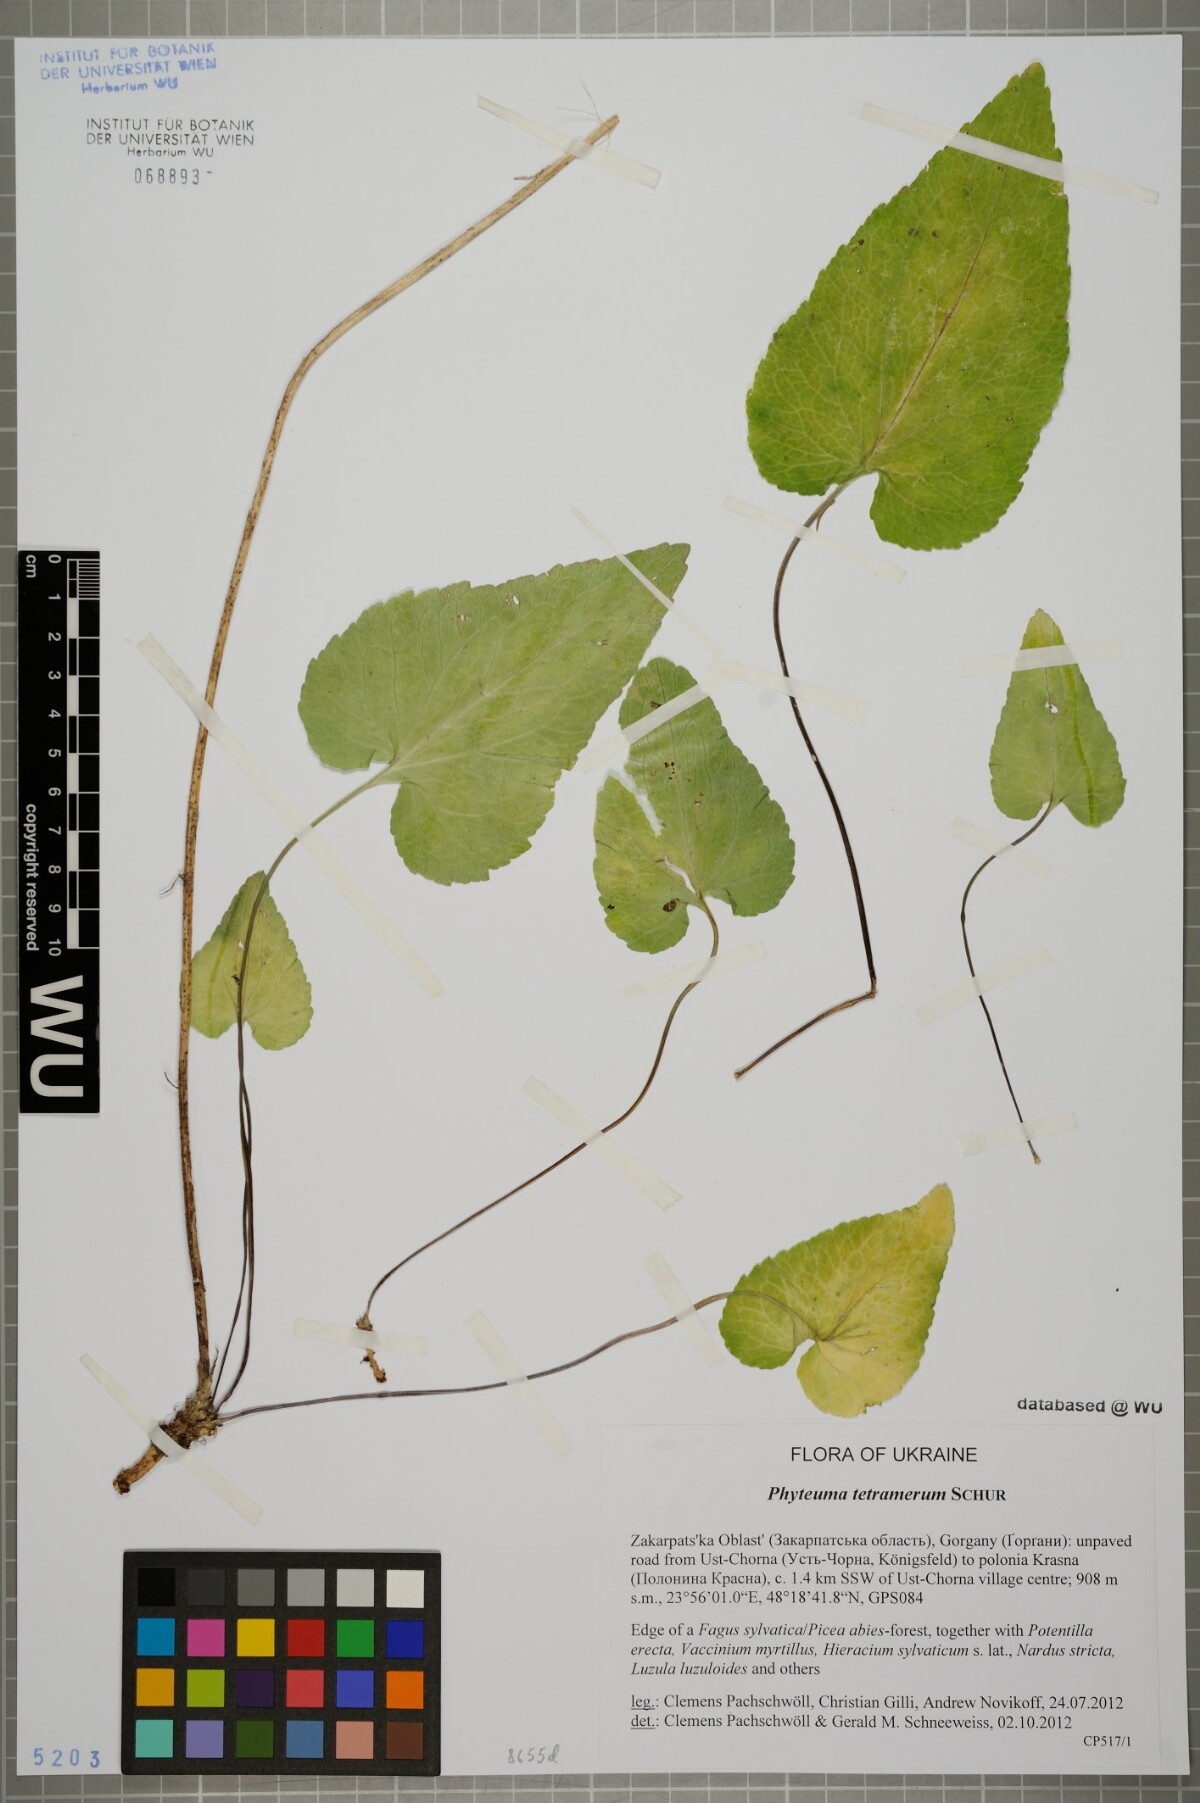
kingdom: Plantae
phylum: Tracheophyta
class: Magnoliopsida
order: Asterales
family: Campanulaceae
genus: Phyteuma
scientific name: Phyteuma tetramerum
